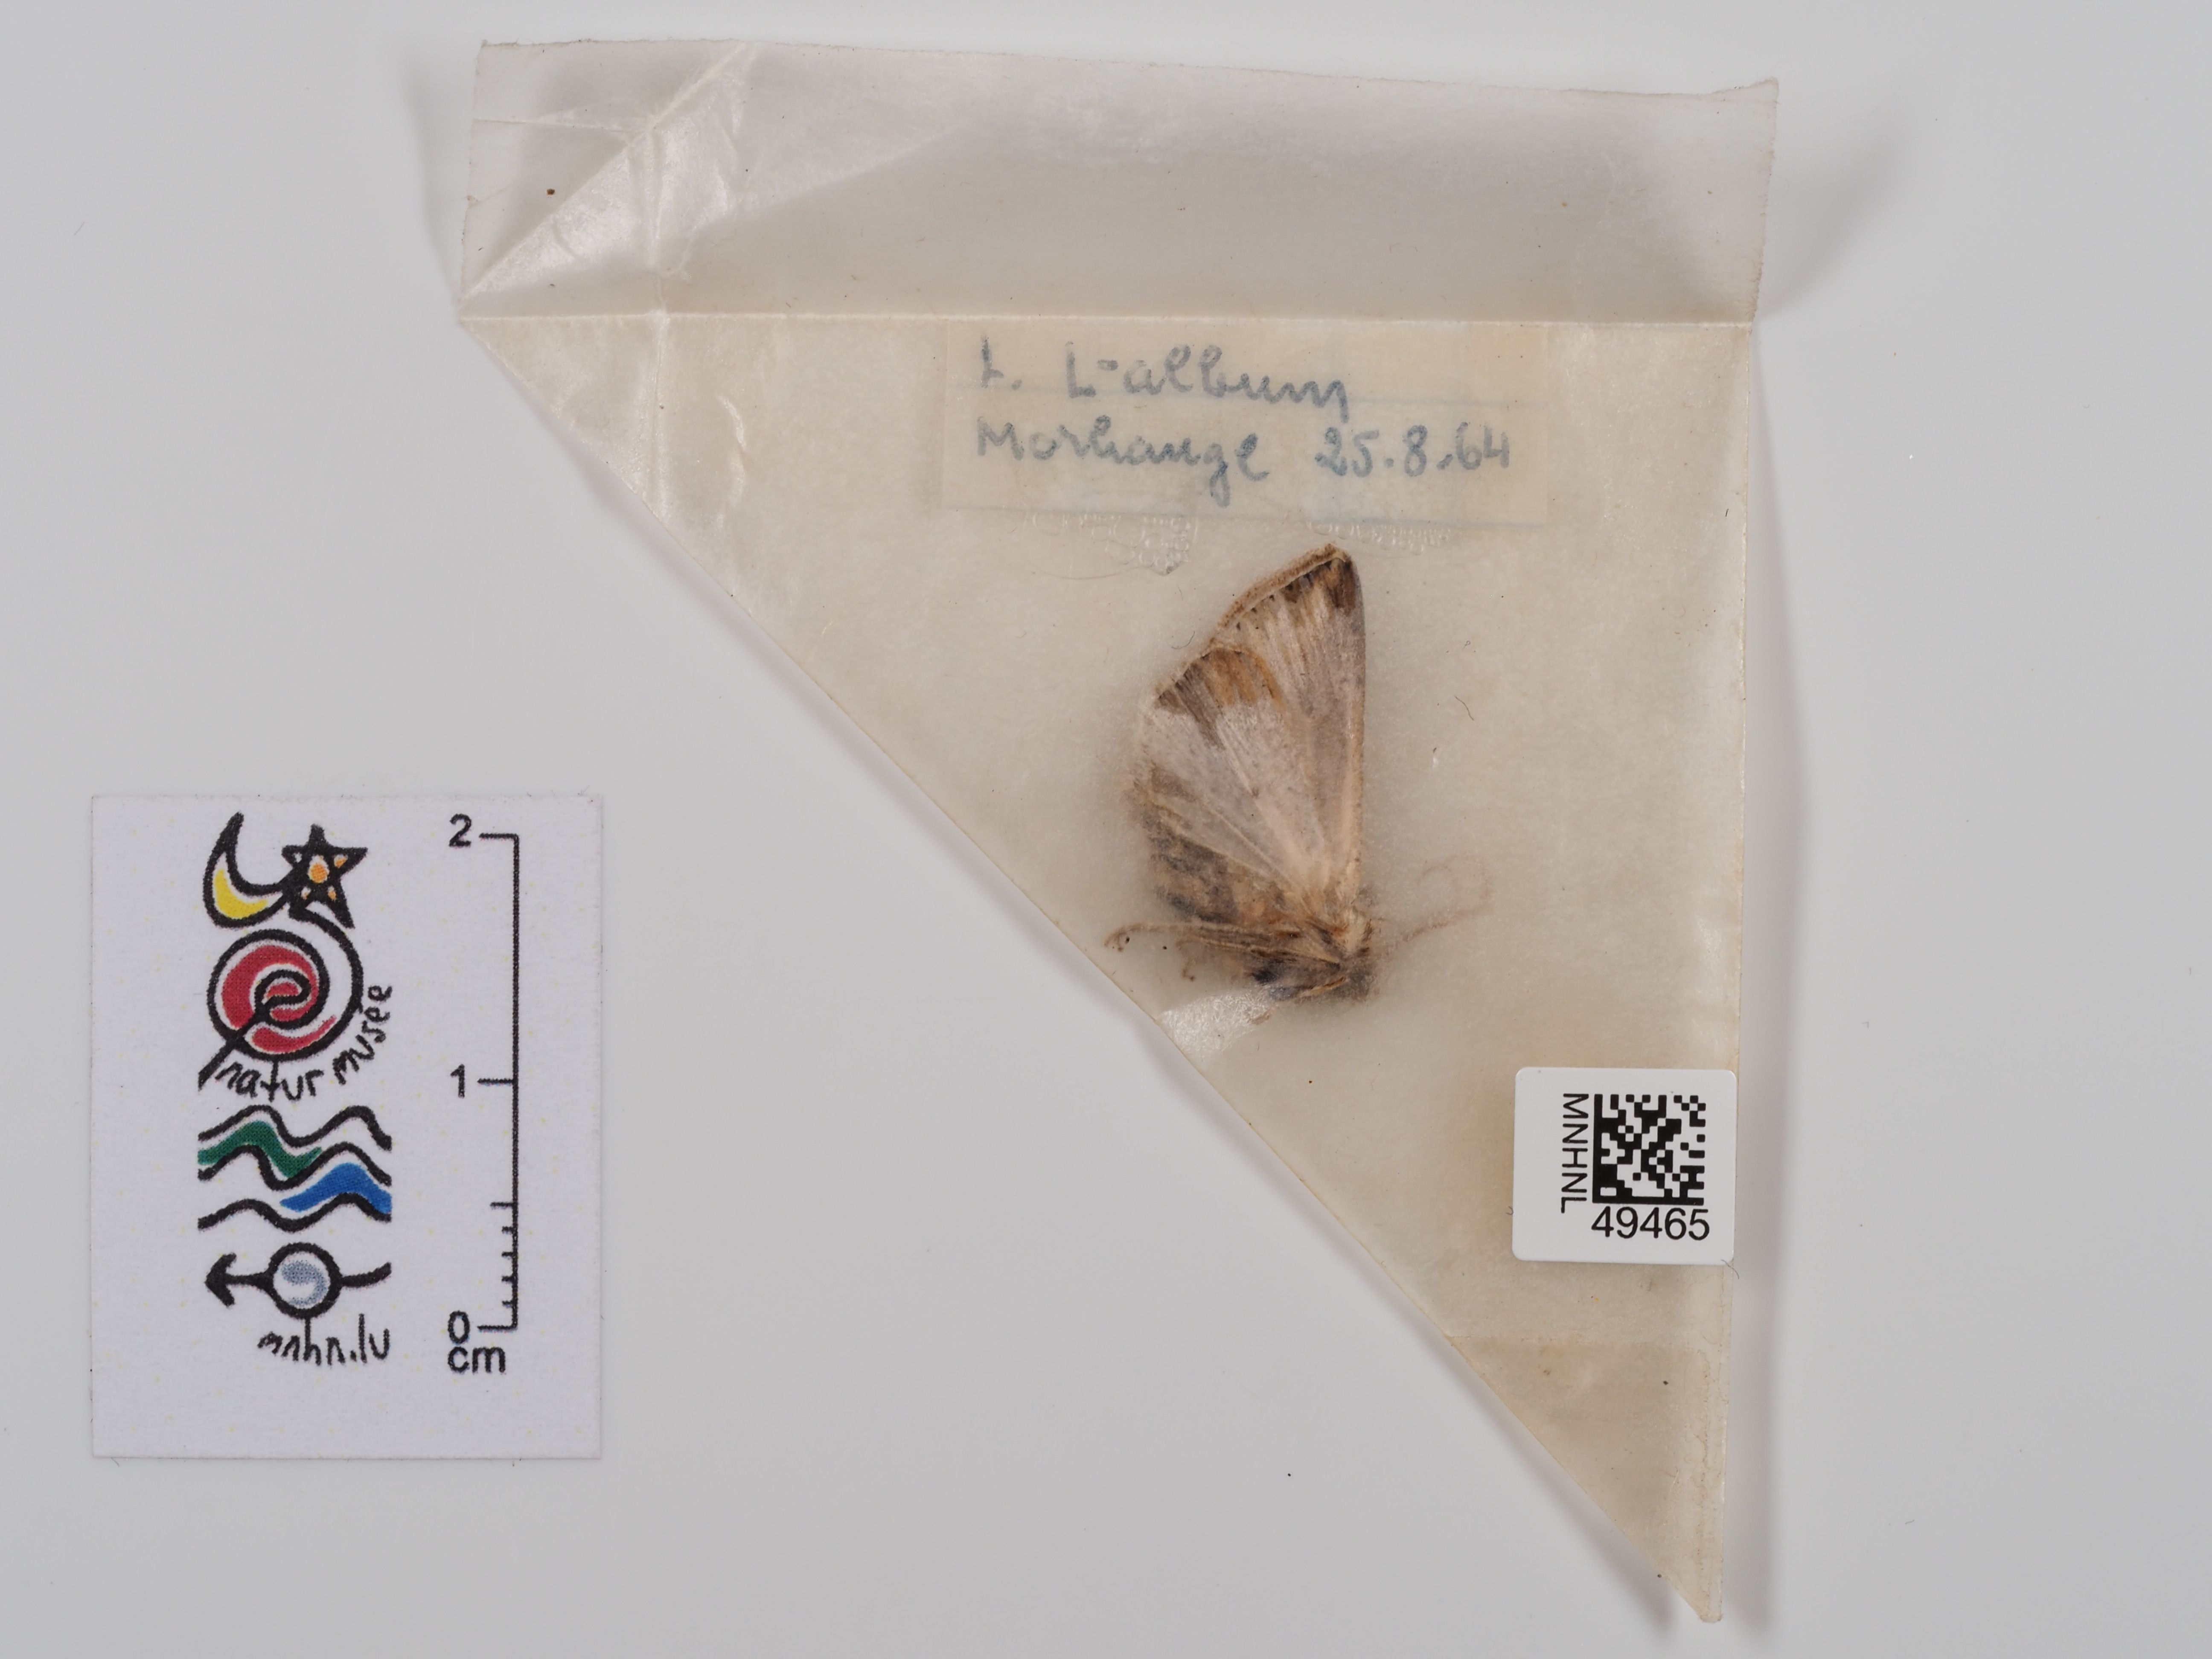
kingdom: Animalia
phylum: Arthropoda
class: Insecta
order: Lepidoptera
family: Noctuidae
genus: Mythimna
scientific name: Mythimna l-album
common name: L-album wainscot
